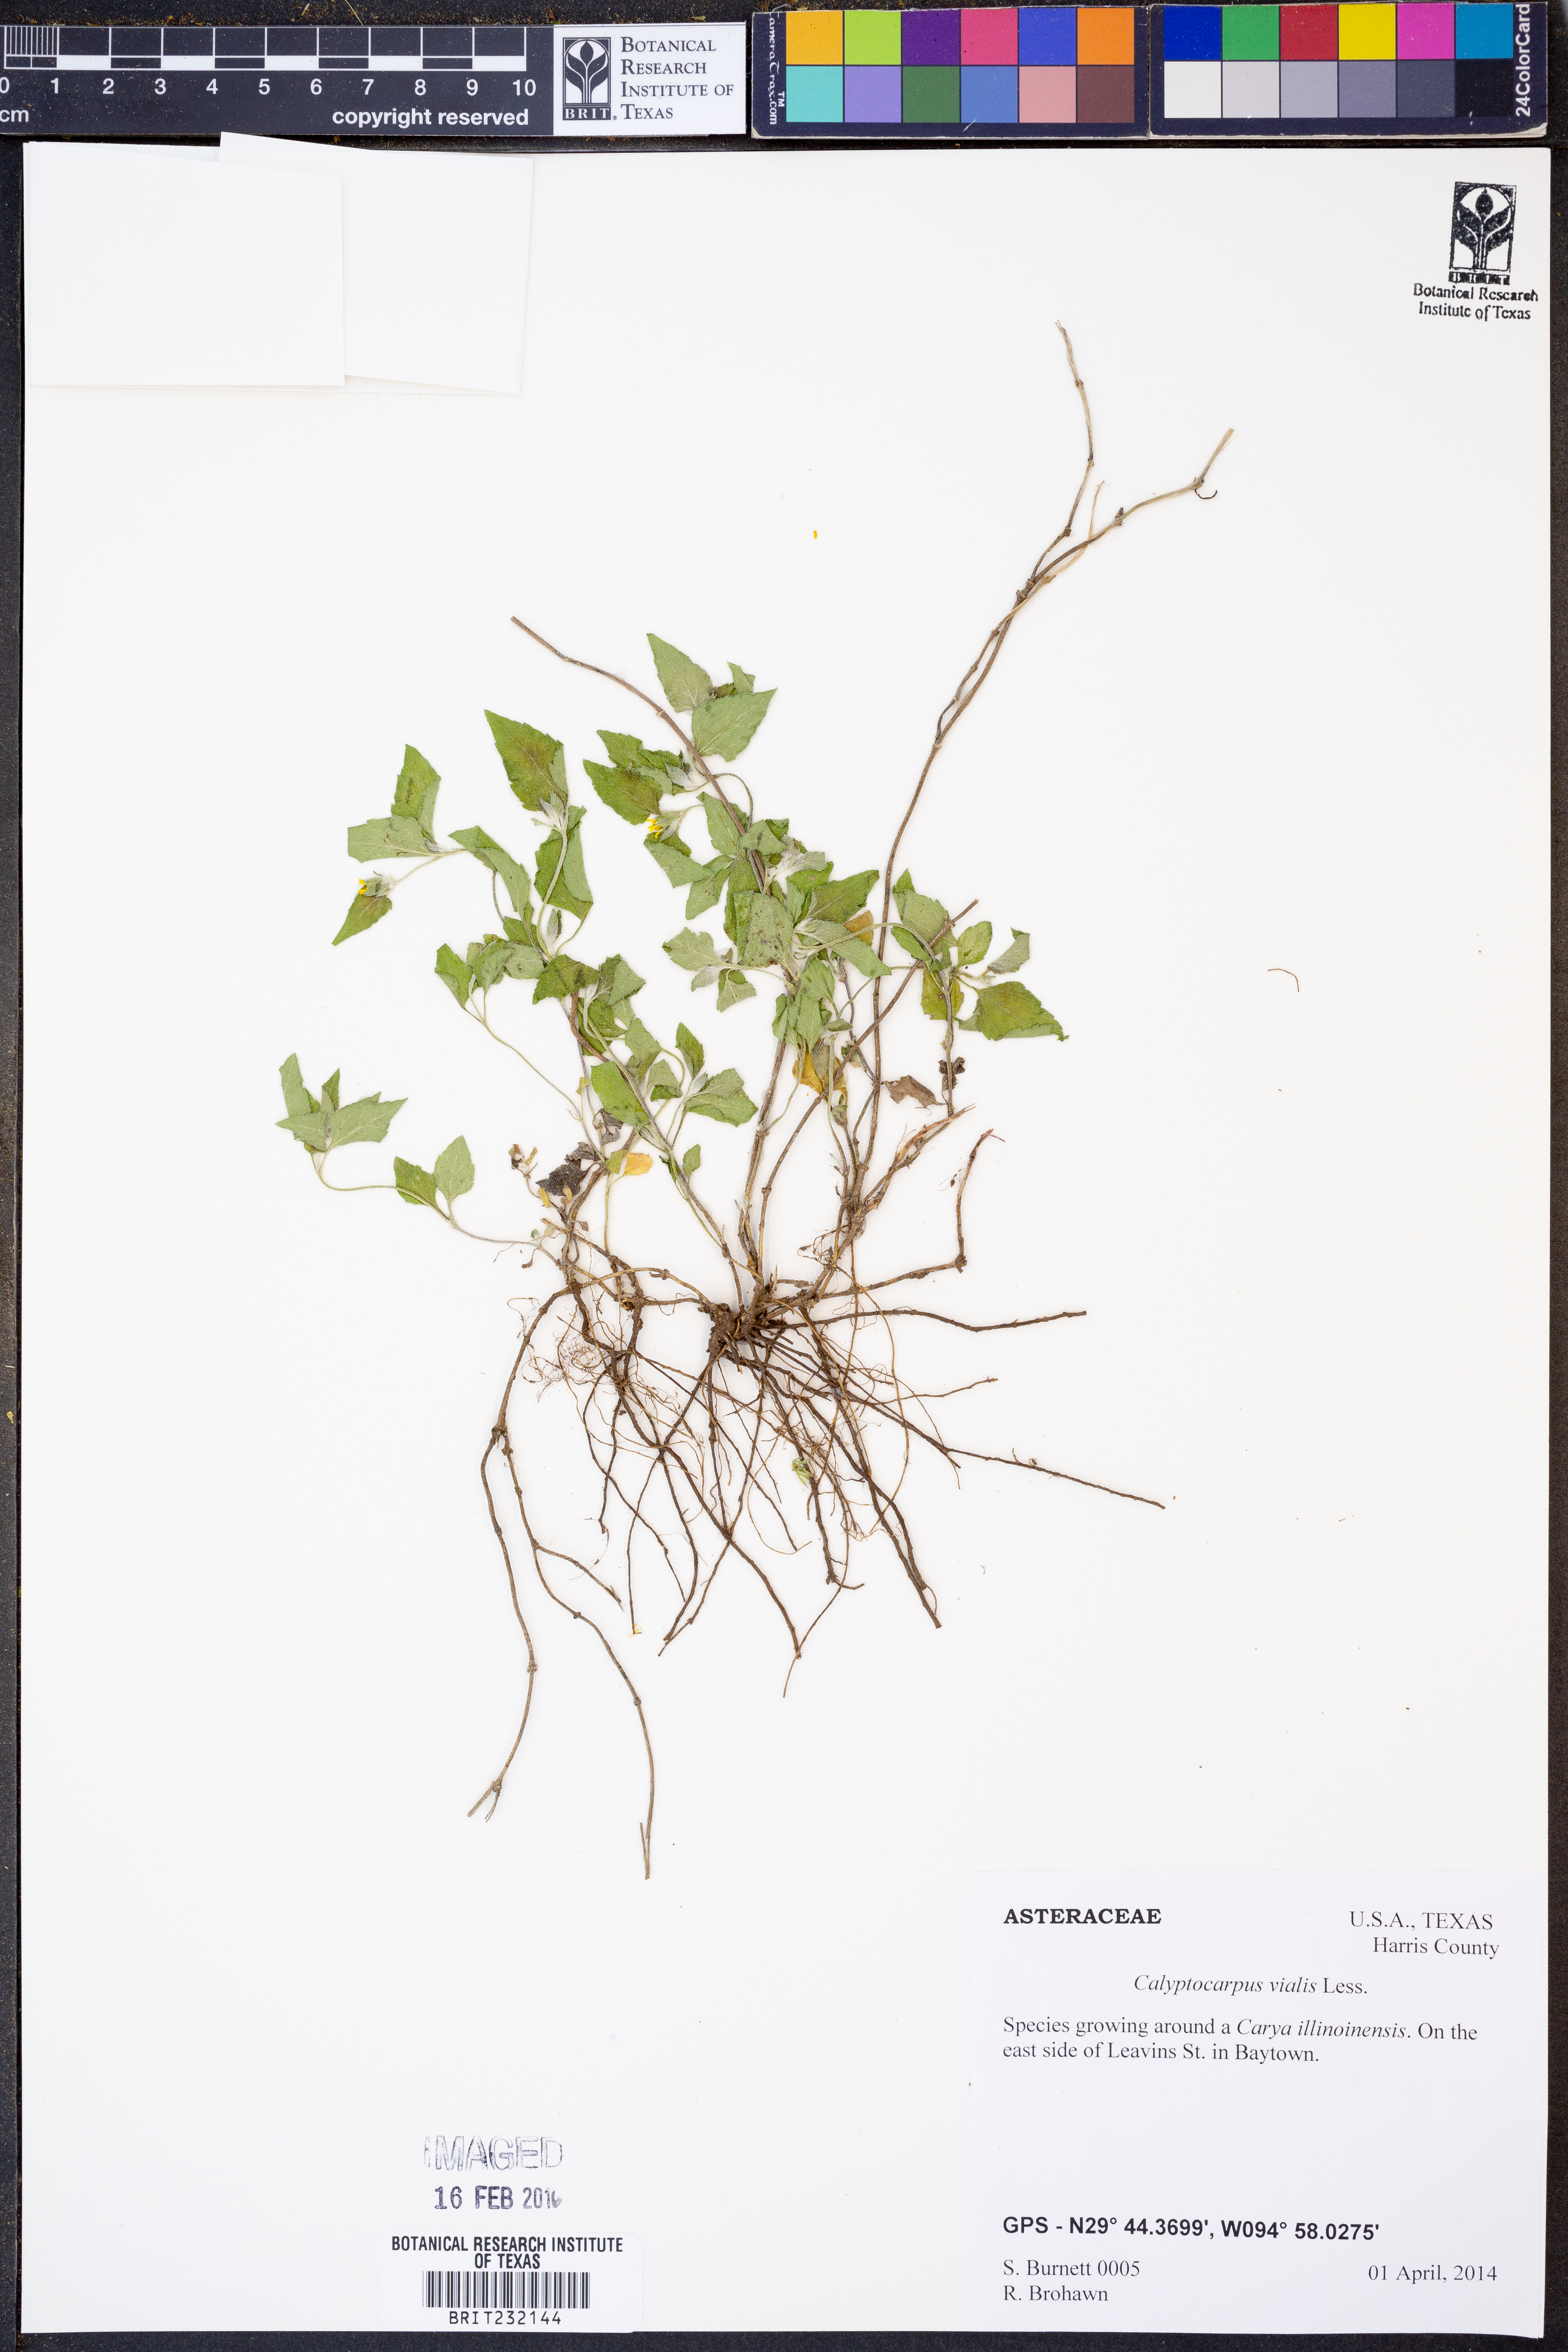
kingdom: Plantae
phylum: Tracheophyta
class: Magnoliopsida
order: Asterales
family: Asteraceae
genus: Calyptocarpus
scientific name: Calyptocarpus vialis
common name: Straggler daisy
